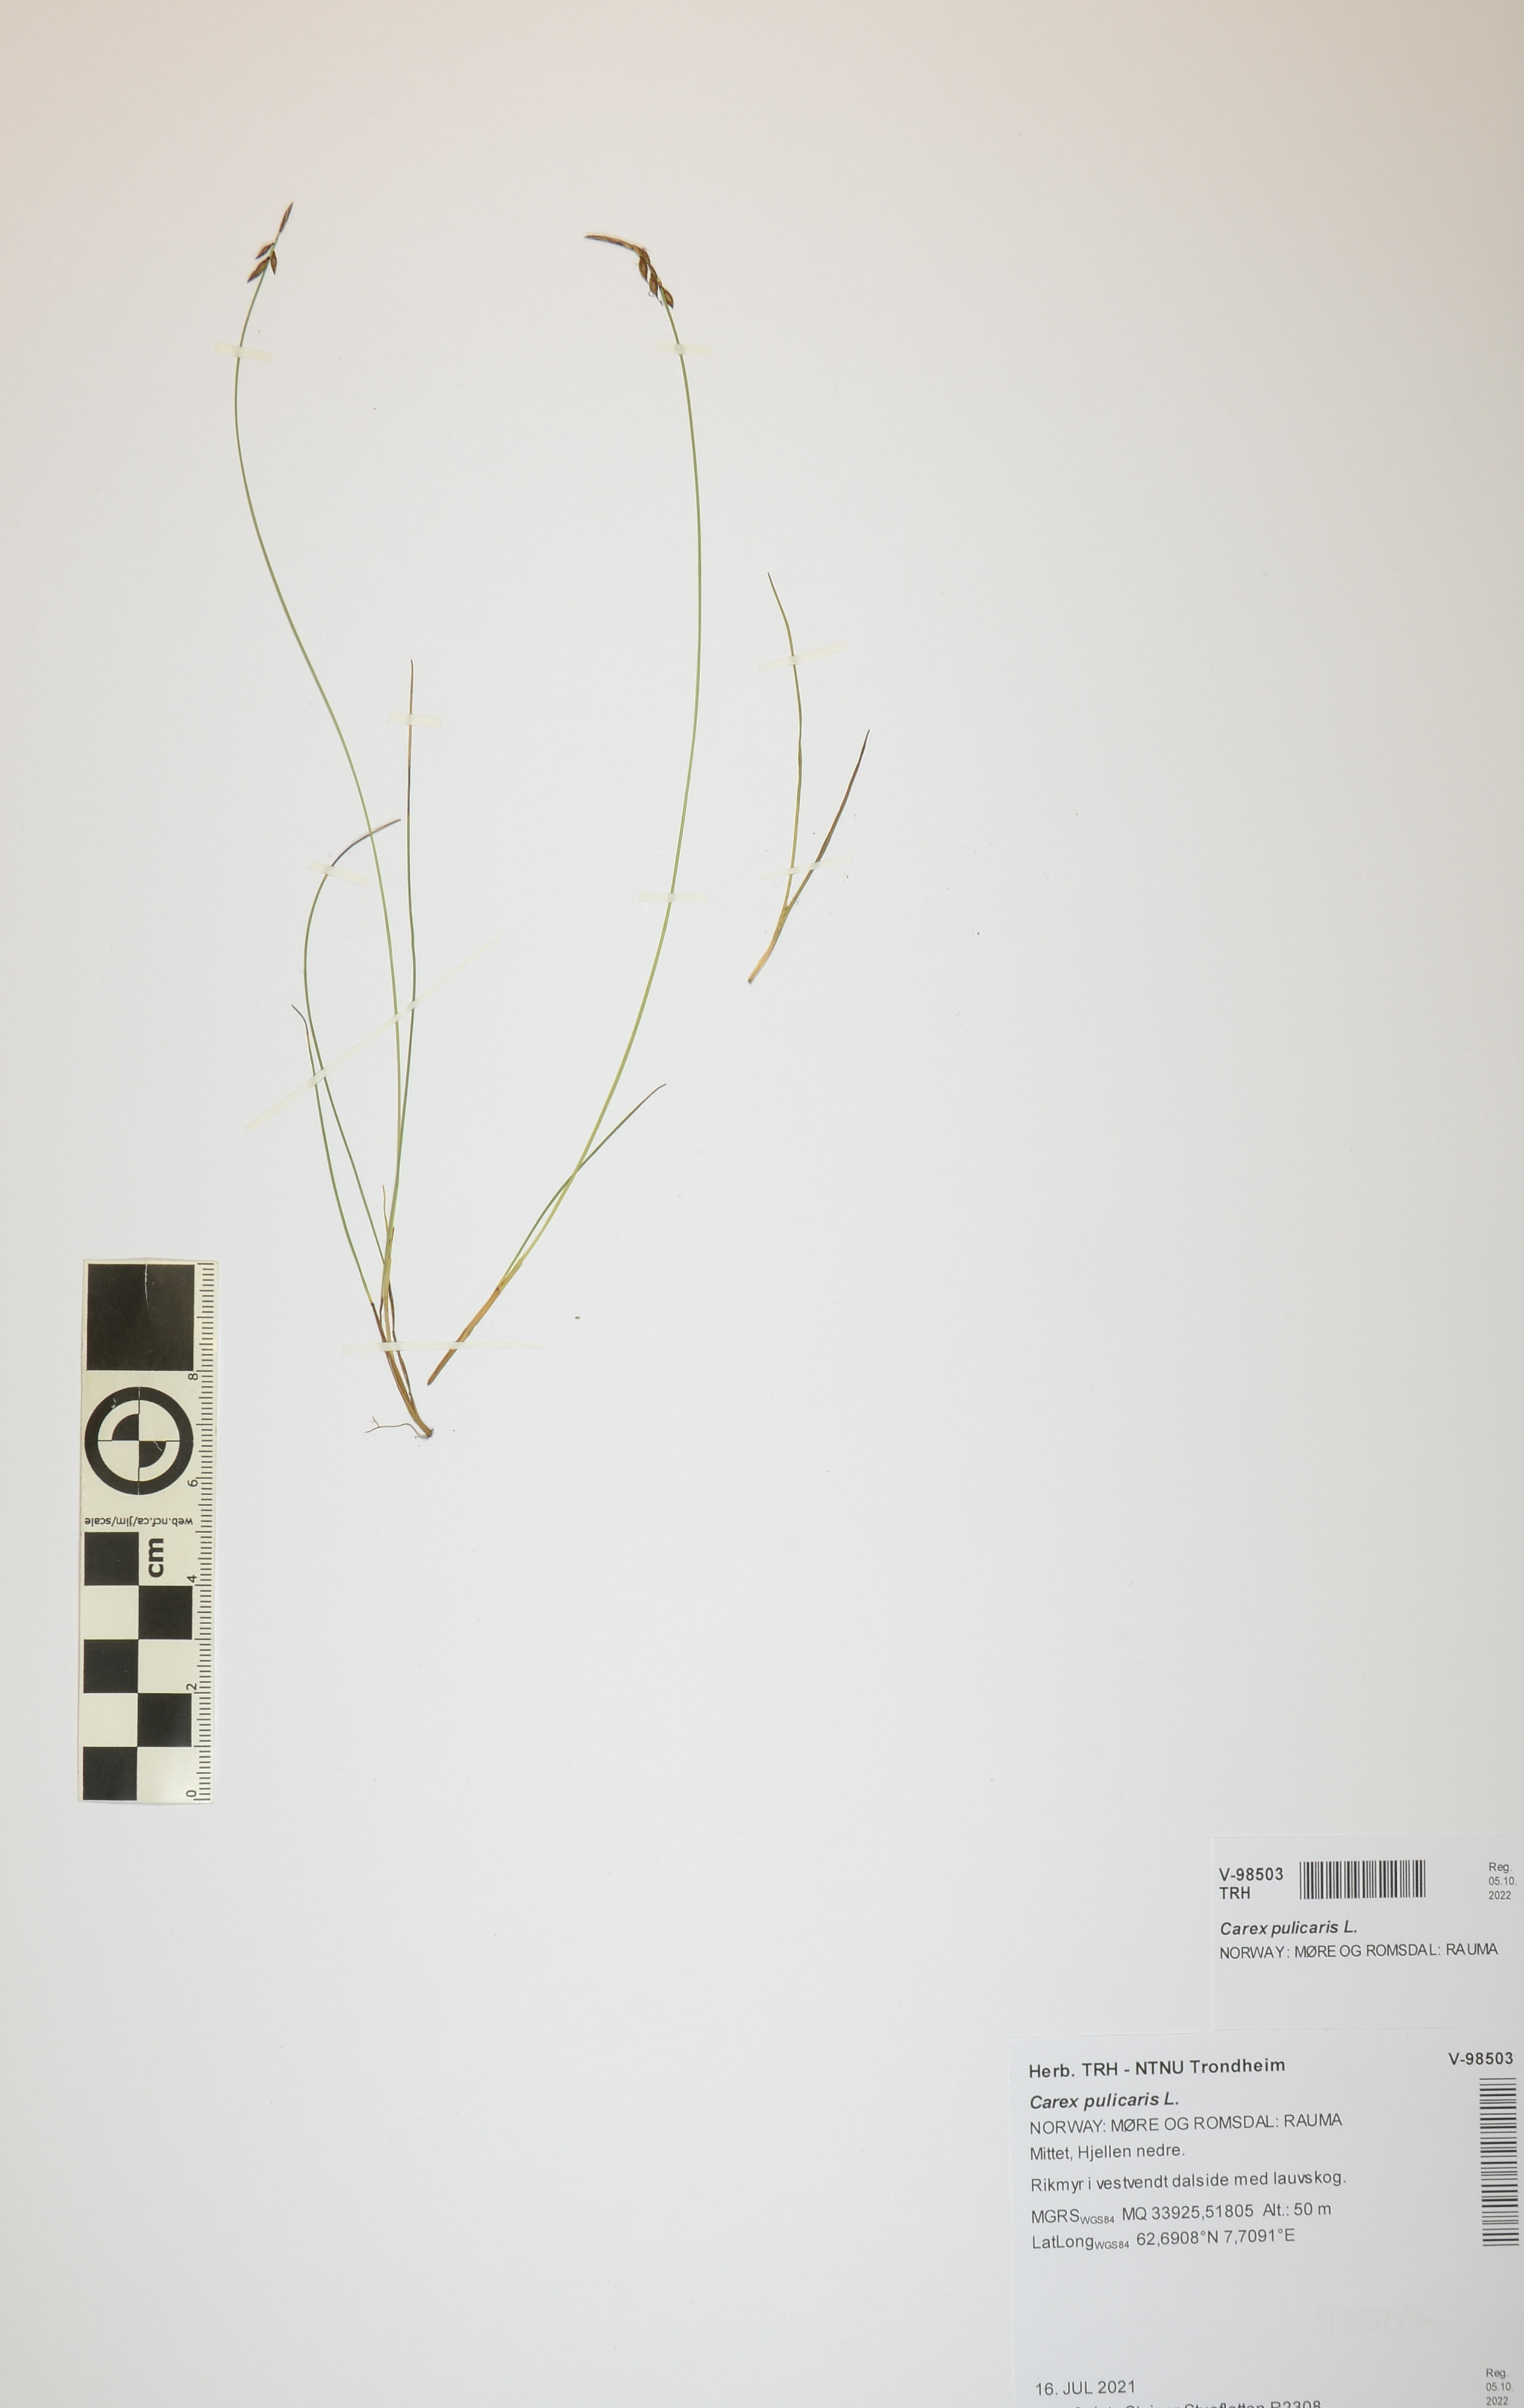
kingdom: Plantae
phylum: Tracheophyta
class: Liliopsida
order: Poales
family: Cyperaceae
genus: Carex
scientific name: Carex pulicaris
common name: Flea sedge
